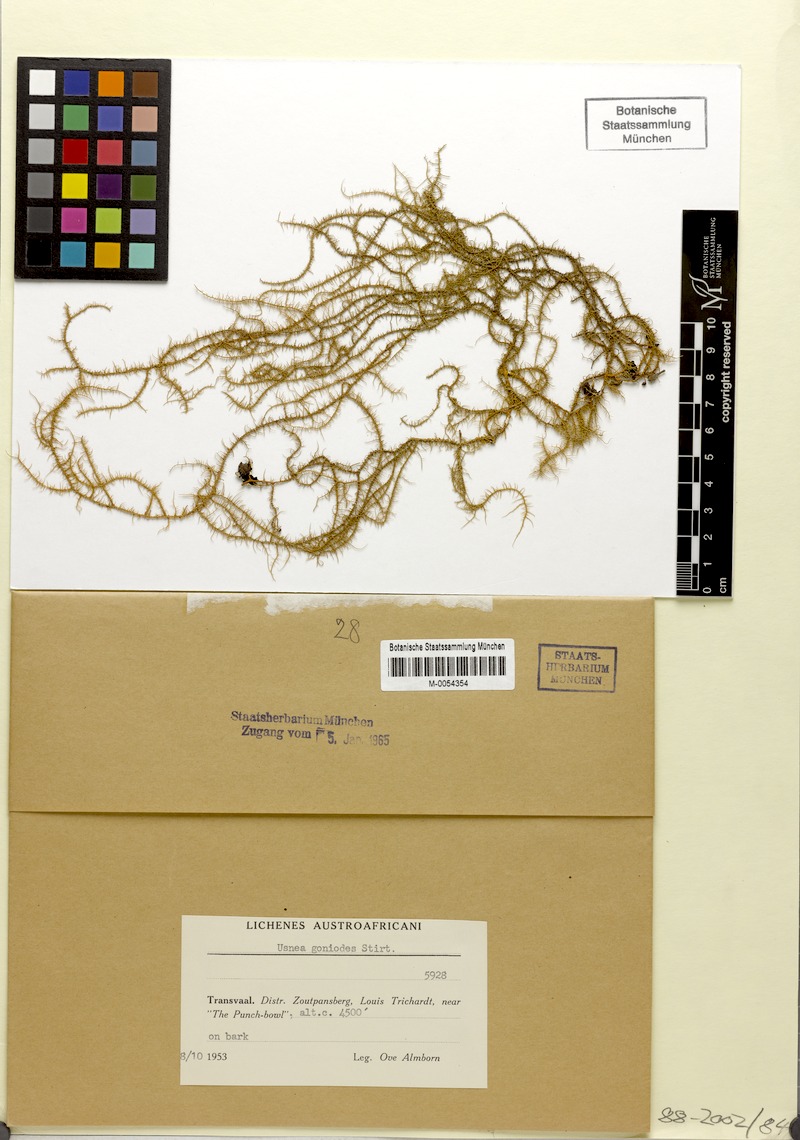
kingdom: Fungi
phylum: Ascomycota
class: Lecanoromycetes
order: Lecanorales
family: Parmeliaceae
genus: Usnea
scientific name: Usnea goniodes
